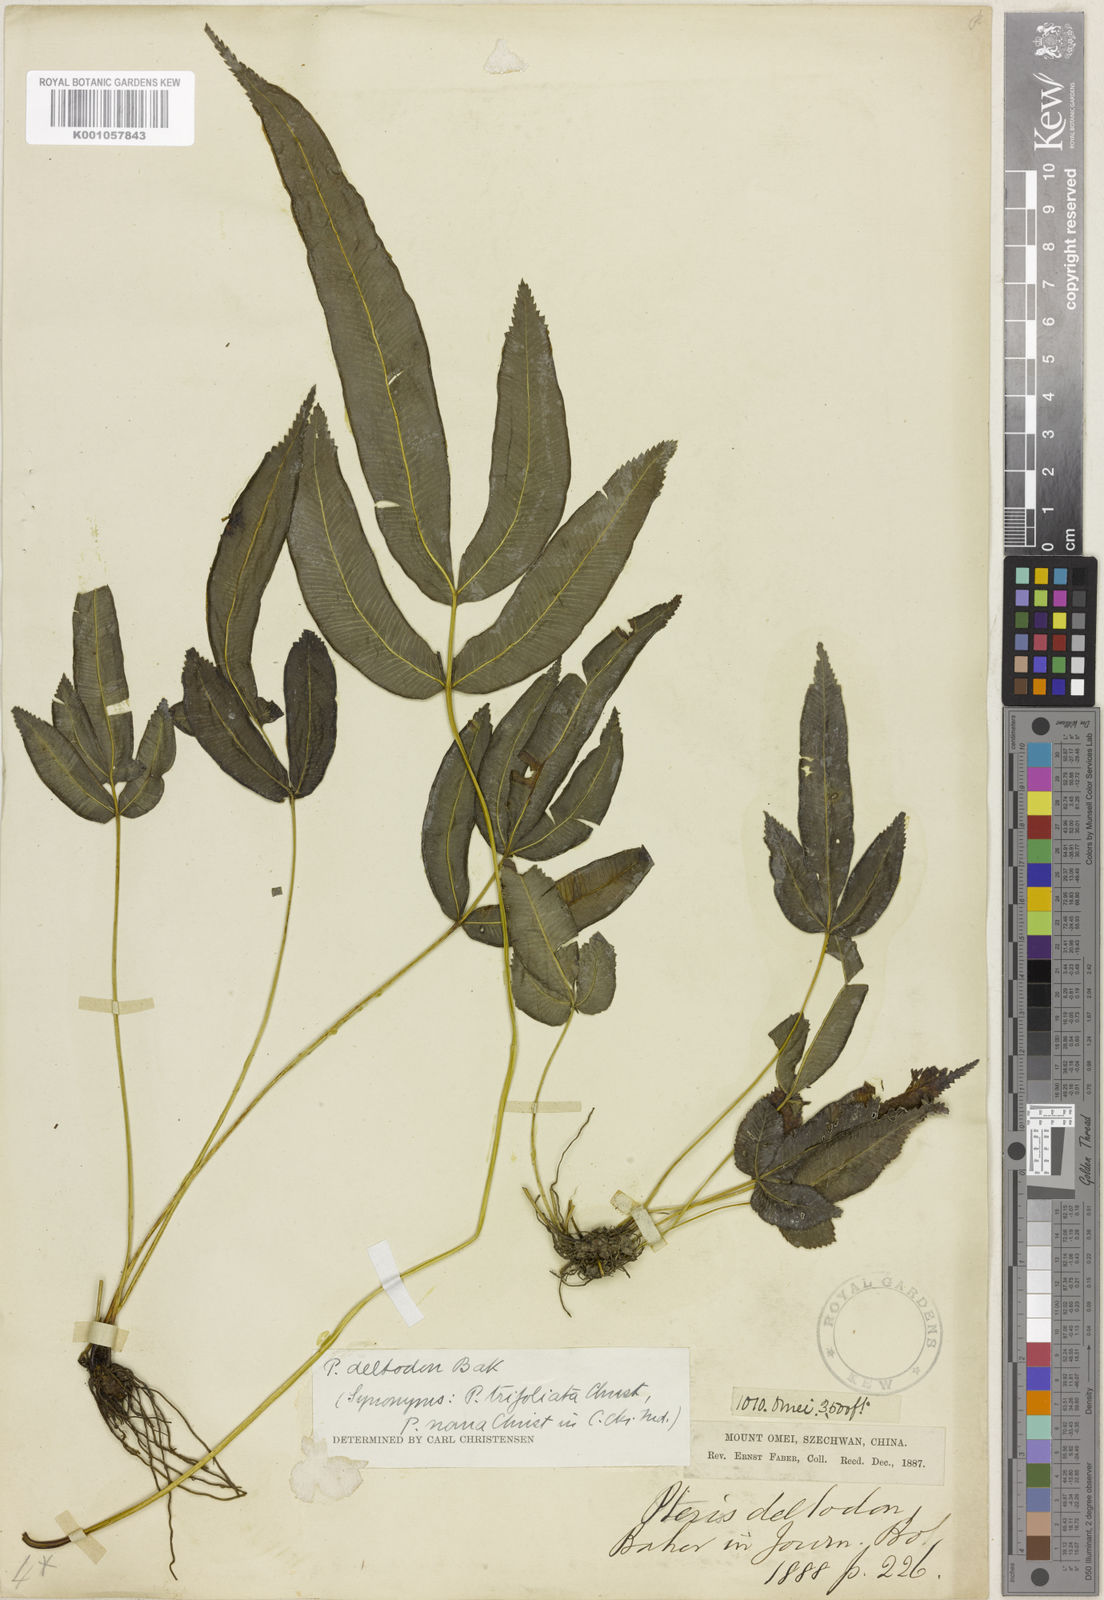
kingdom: Plantae
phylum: Tracheophyta
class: Polypodiopsida
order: Polypodiales
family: Pteridaceae
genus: Pteris
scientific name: Pteris deltodon
